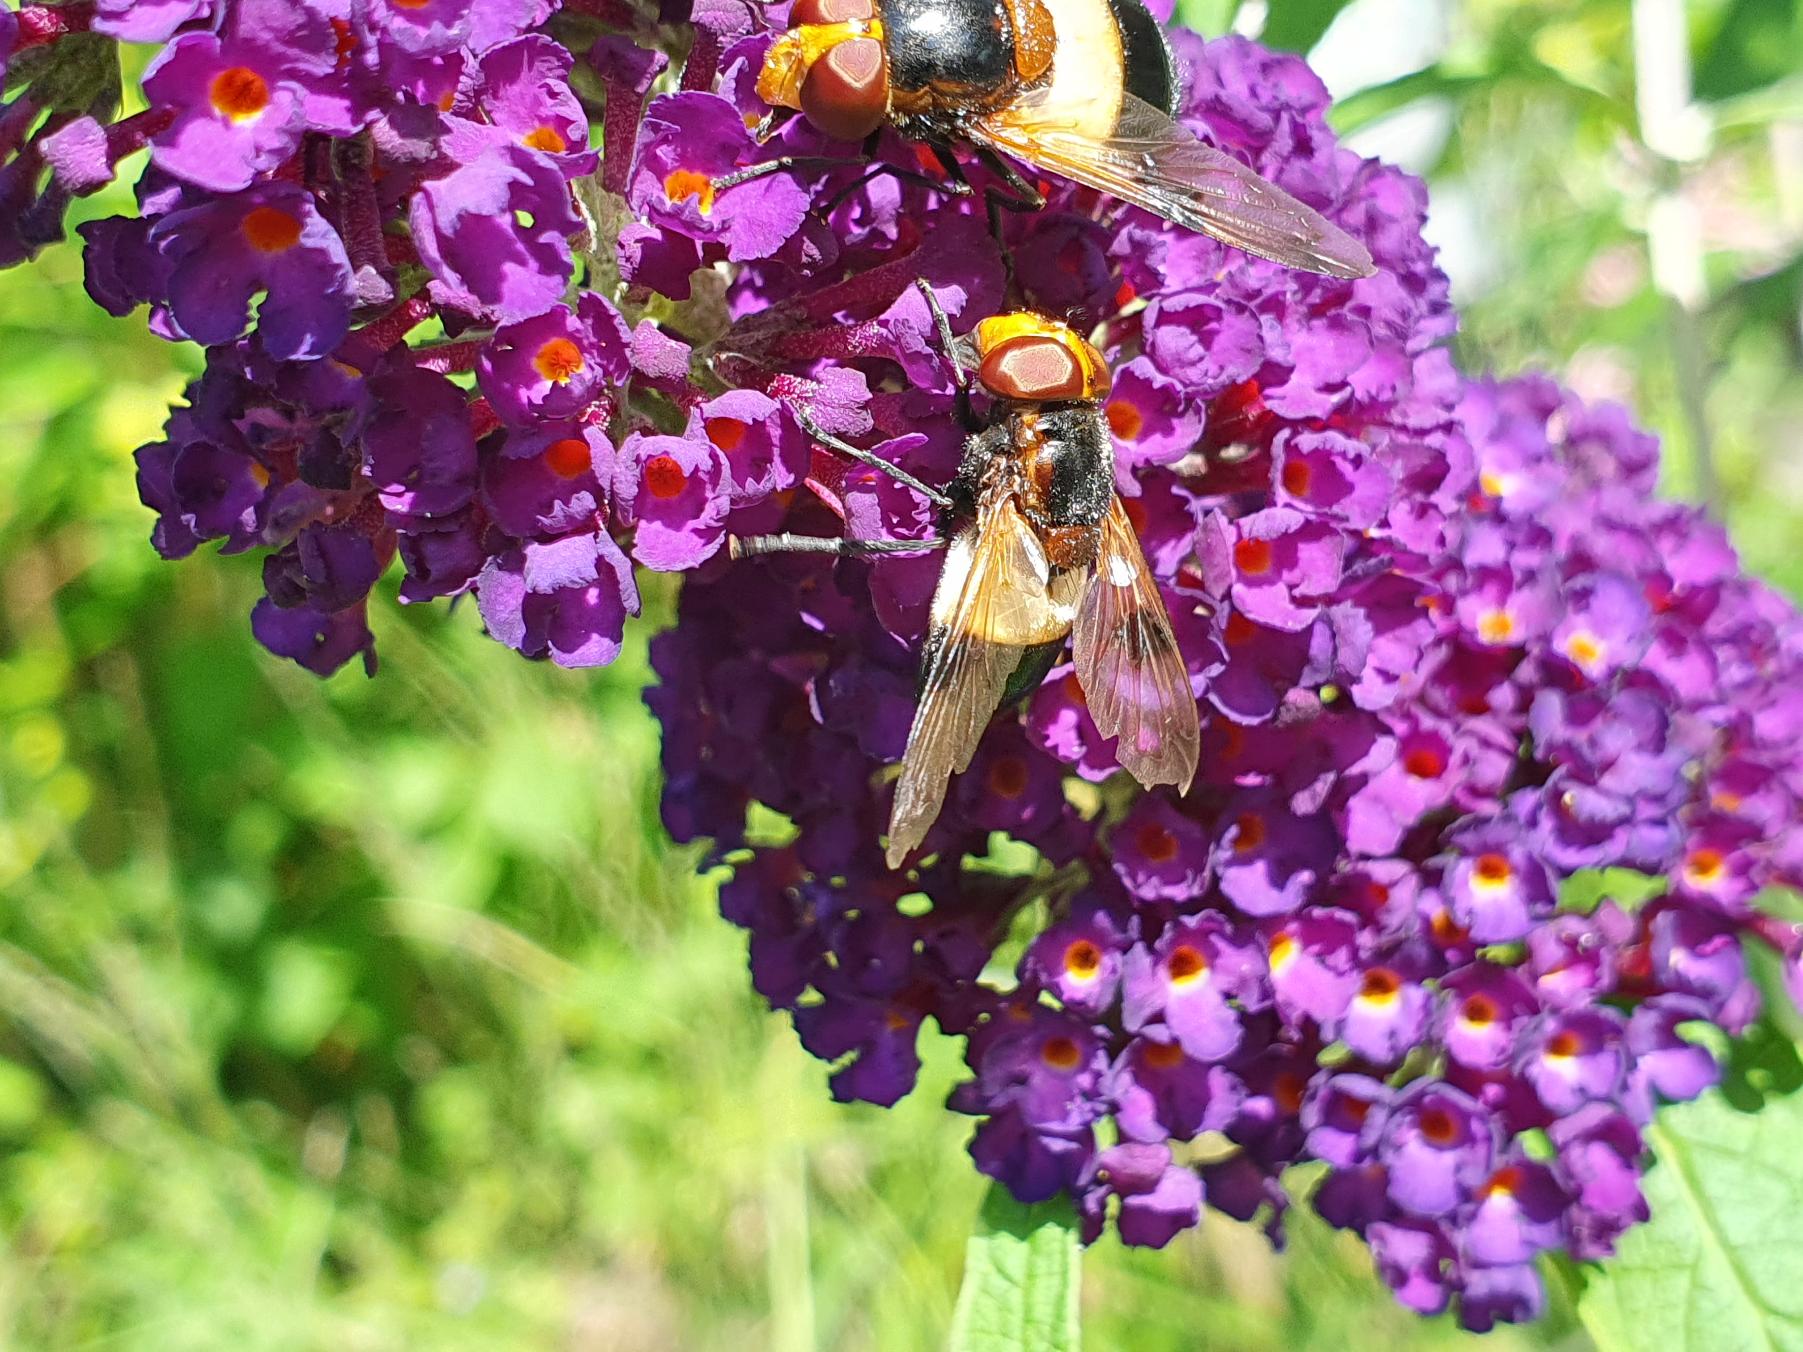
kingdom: Animalia
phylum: Arthropoda
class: Insecta
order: Diptera
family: Syrphidae
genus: Volucella
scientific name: Volucella pellucens
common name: Hvidbåndet humlesvirreflue
